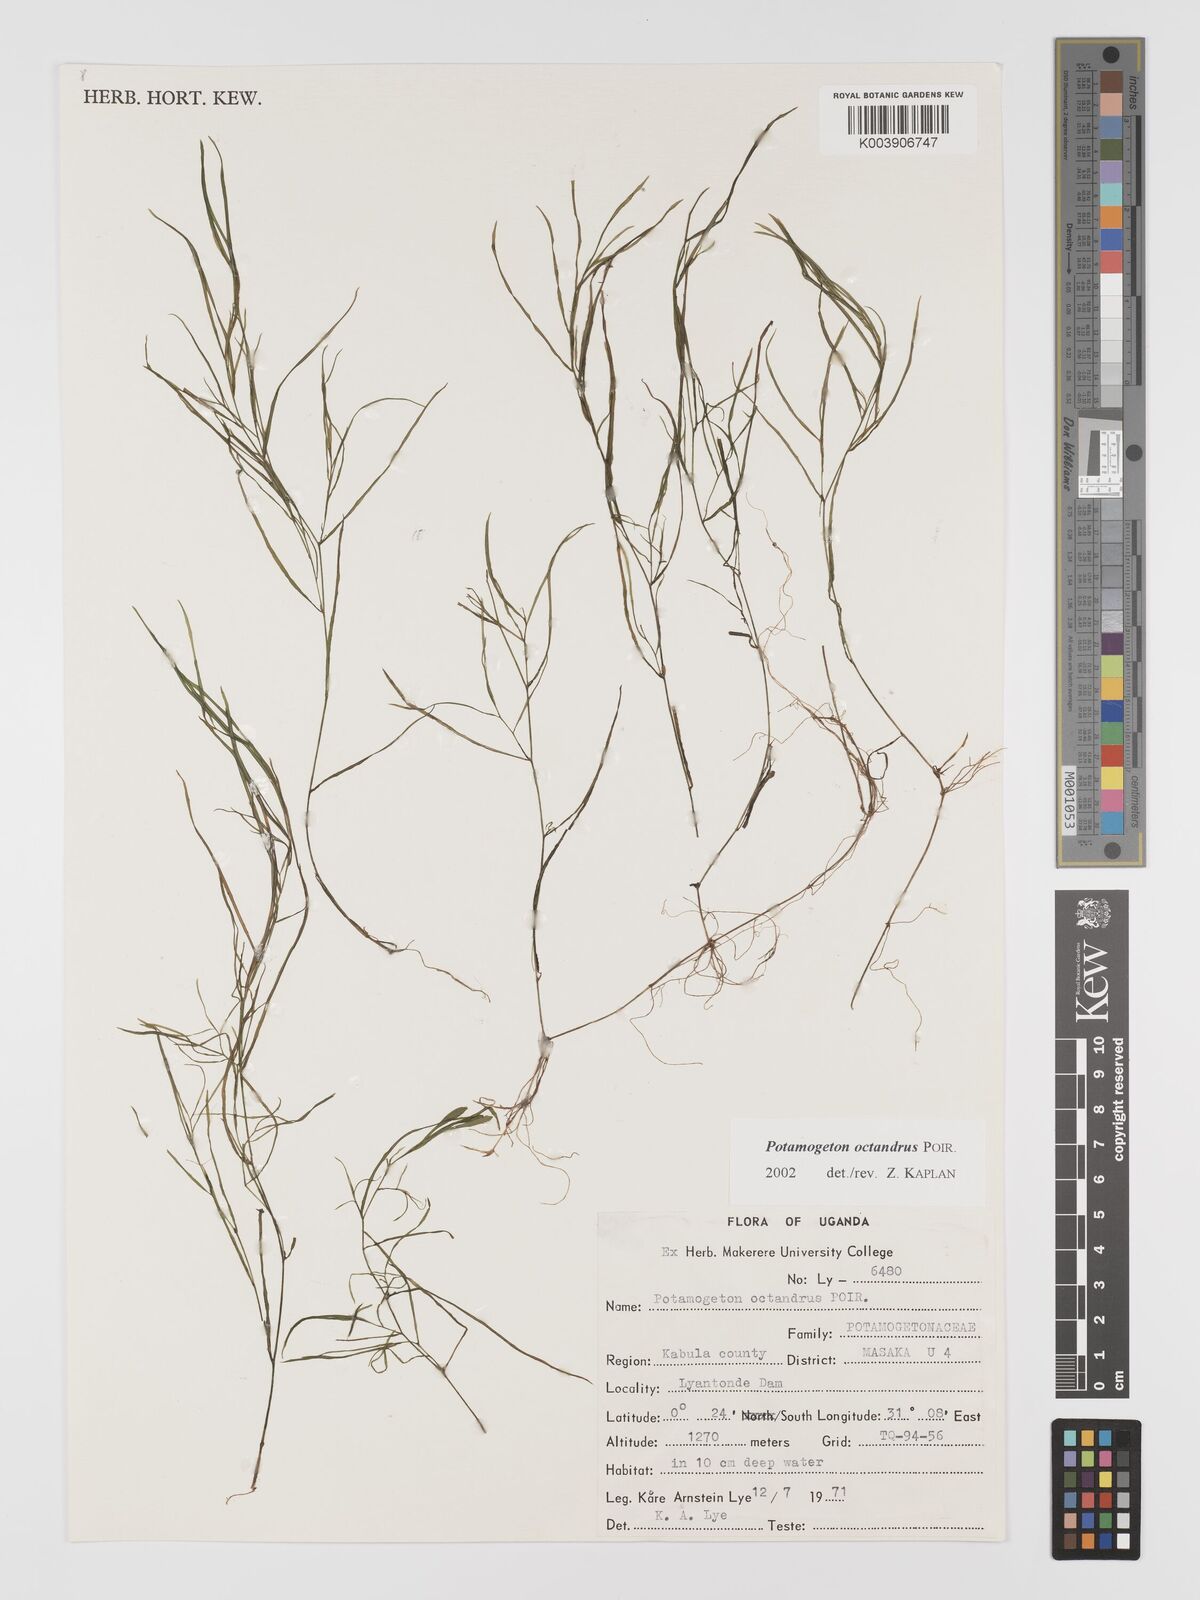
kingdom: Plantae
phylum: Tracheophyta
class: Liliopsida
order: Alismatales
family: Potamogetonaceae
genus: Potamogeton
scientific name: Potamogeton octandrus
